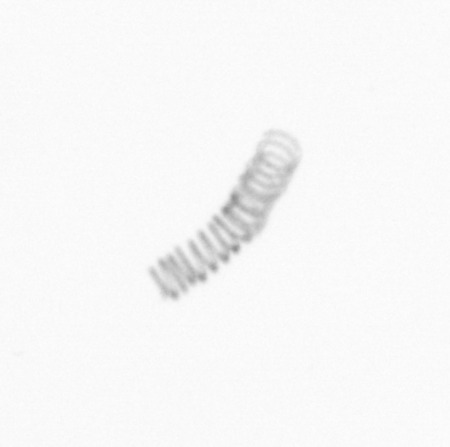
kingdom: Chromista
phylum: Ochrophyta
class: Bacillariophyceae
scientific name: Bacillariophyceae
